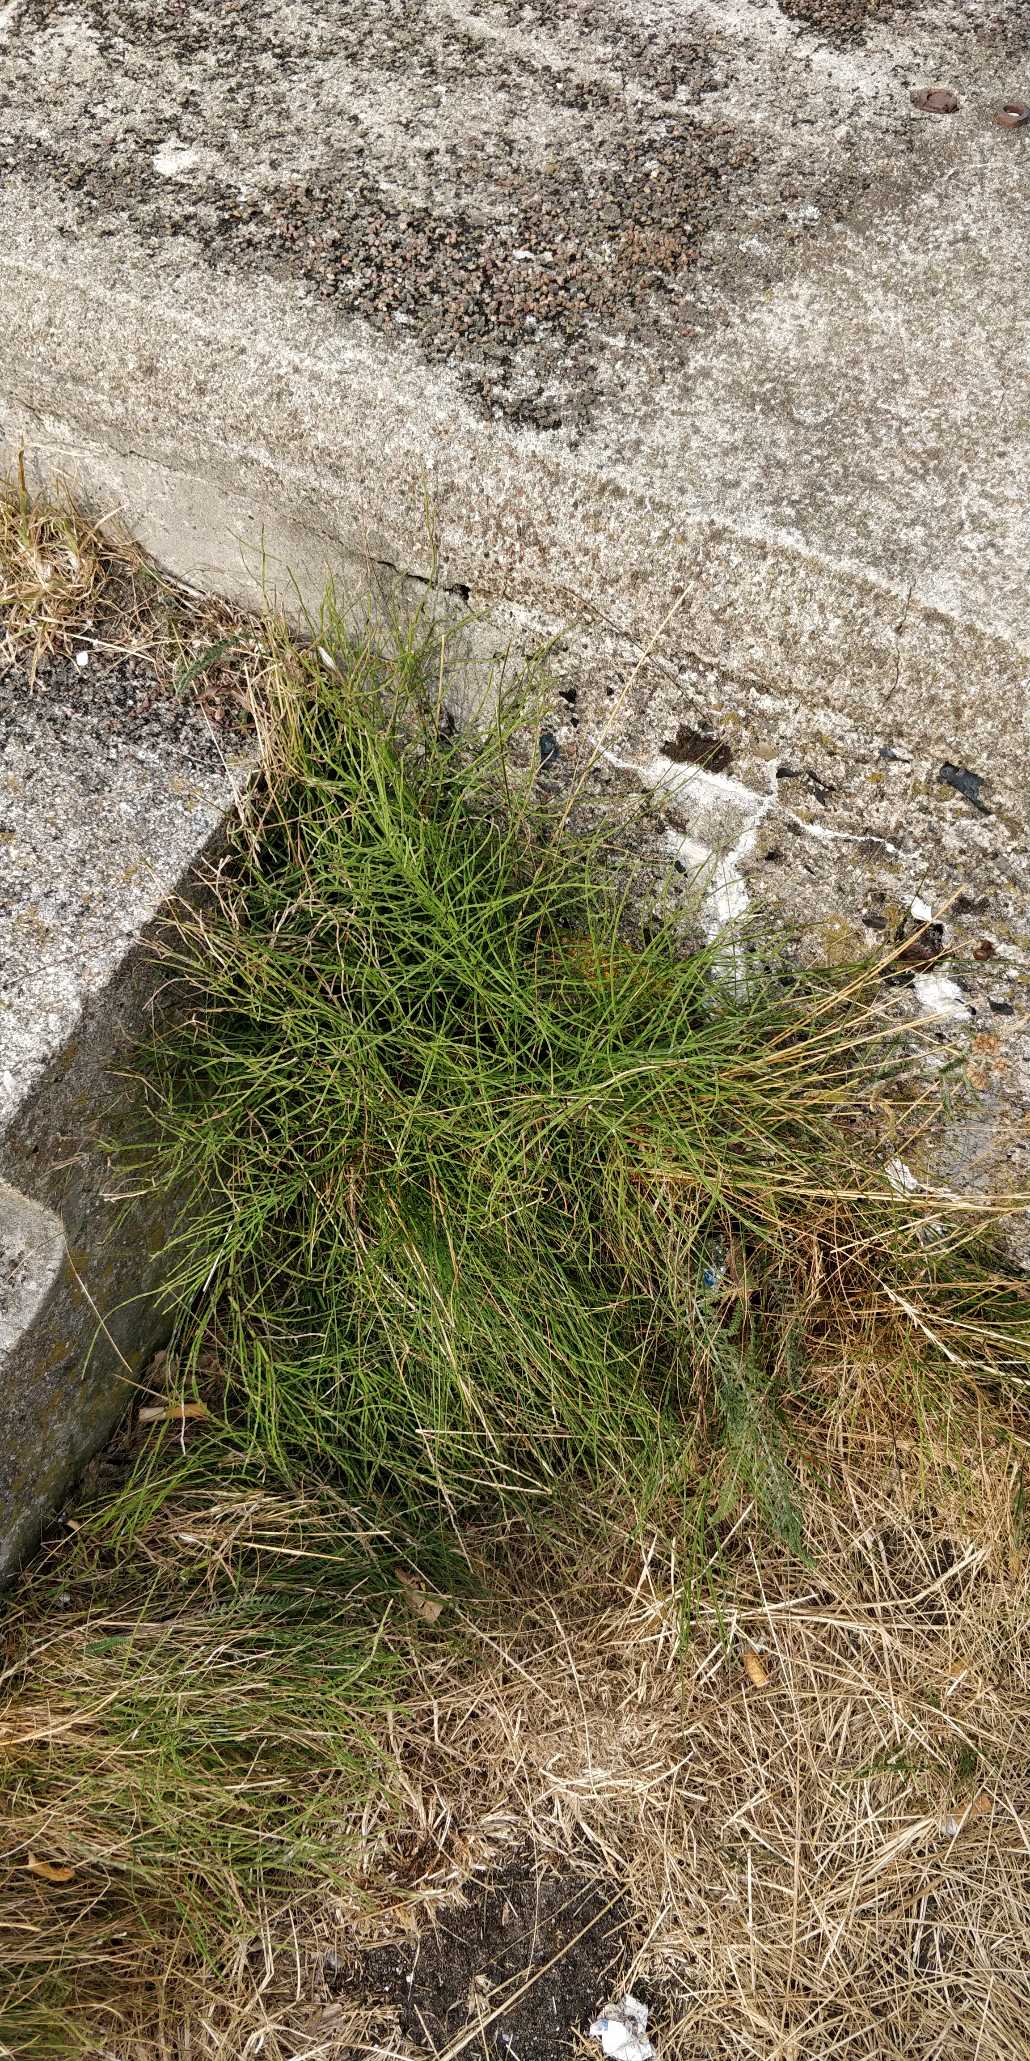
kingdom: Plantae
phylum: Tracheophyta
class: Polypodiopsida
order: Equisetales
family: Equisetaceae
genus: Equisetum
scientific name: Equisetum arvense
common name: Ager-padderok
